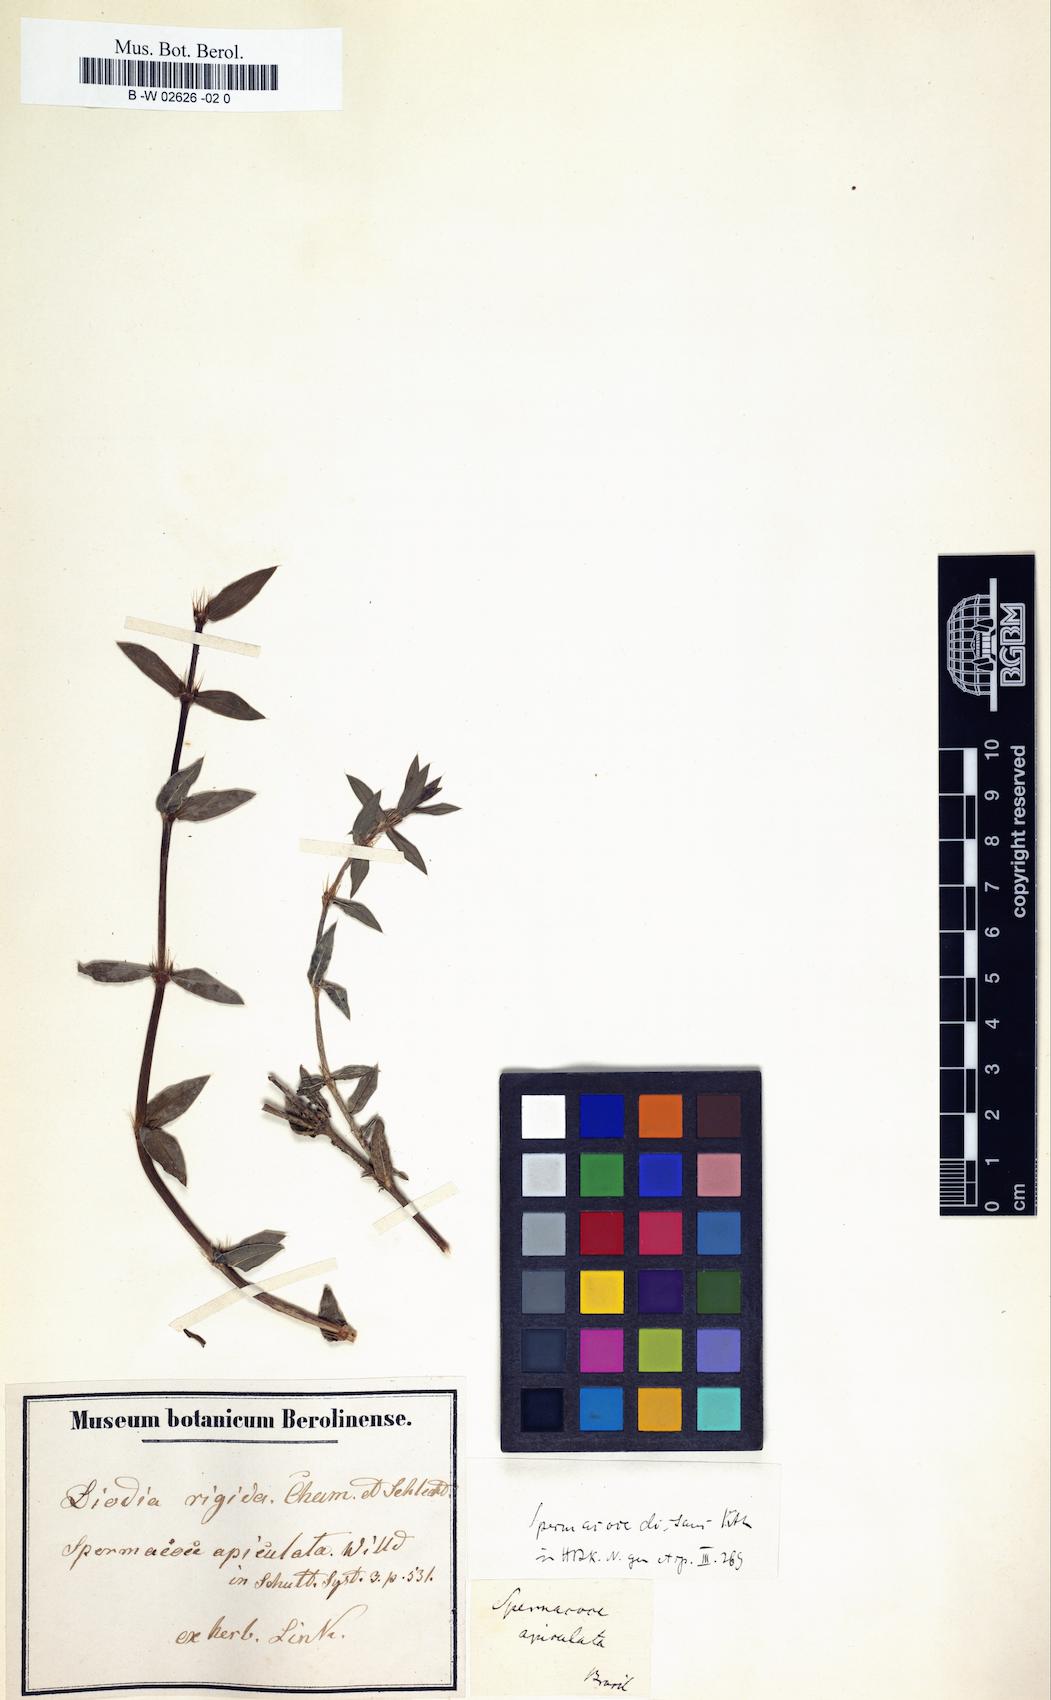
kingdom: Plantae
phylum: Tracheophyta
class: Magnoliopsida
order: Gentianales
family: Rubiaceae
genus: Hexasepalum
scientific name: Hexasepalum apiculatum
